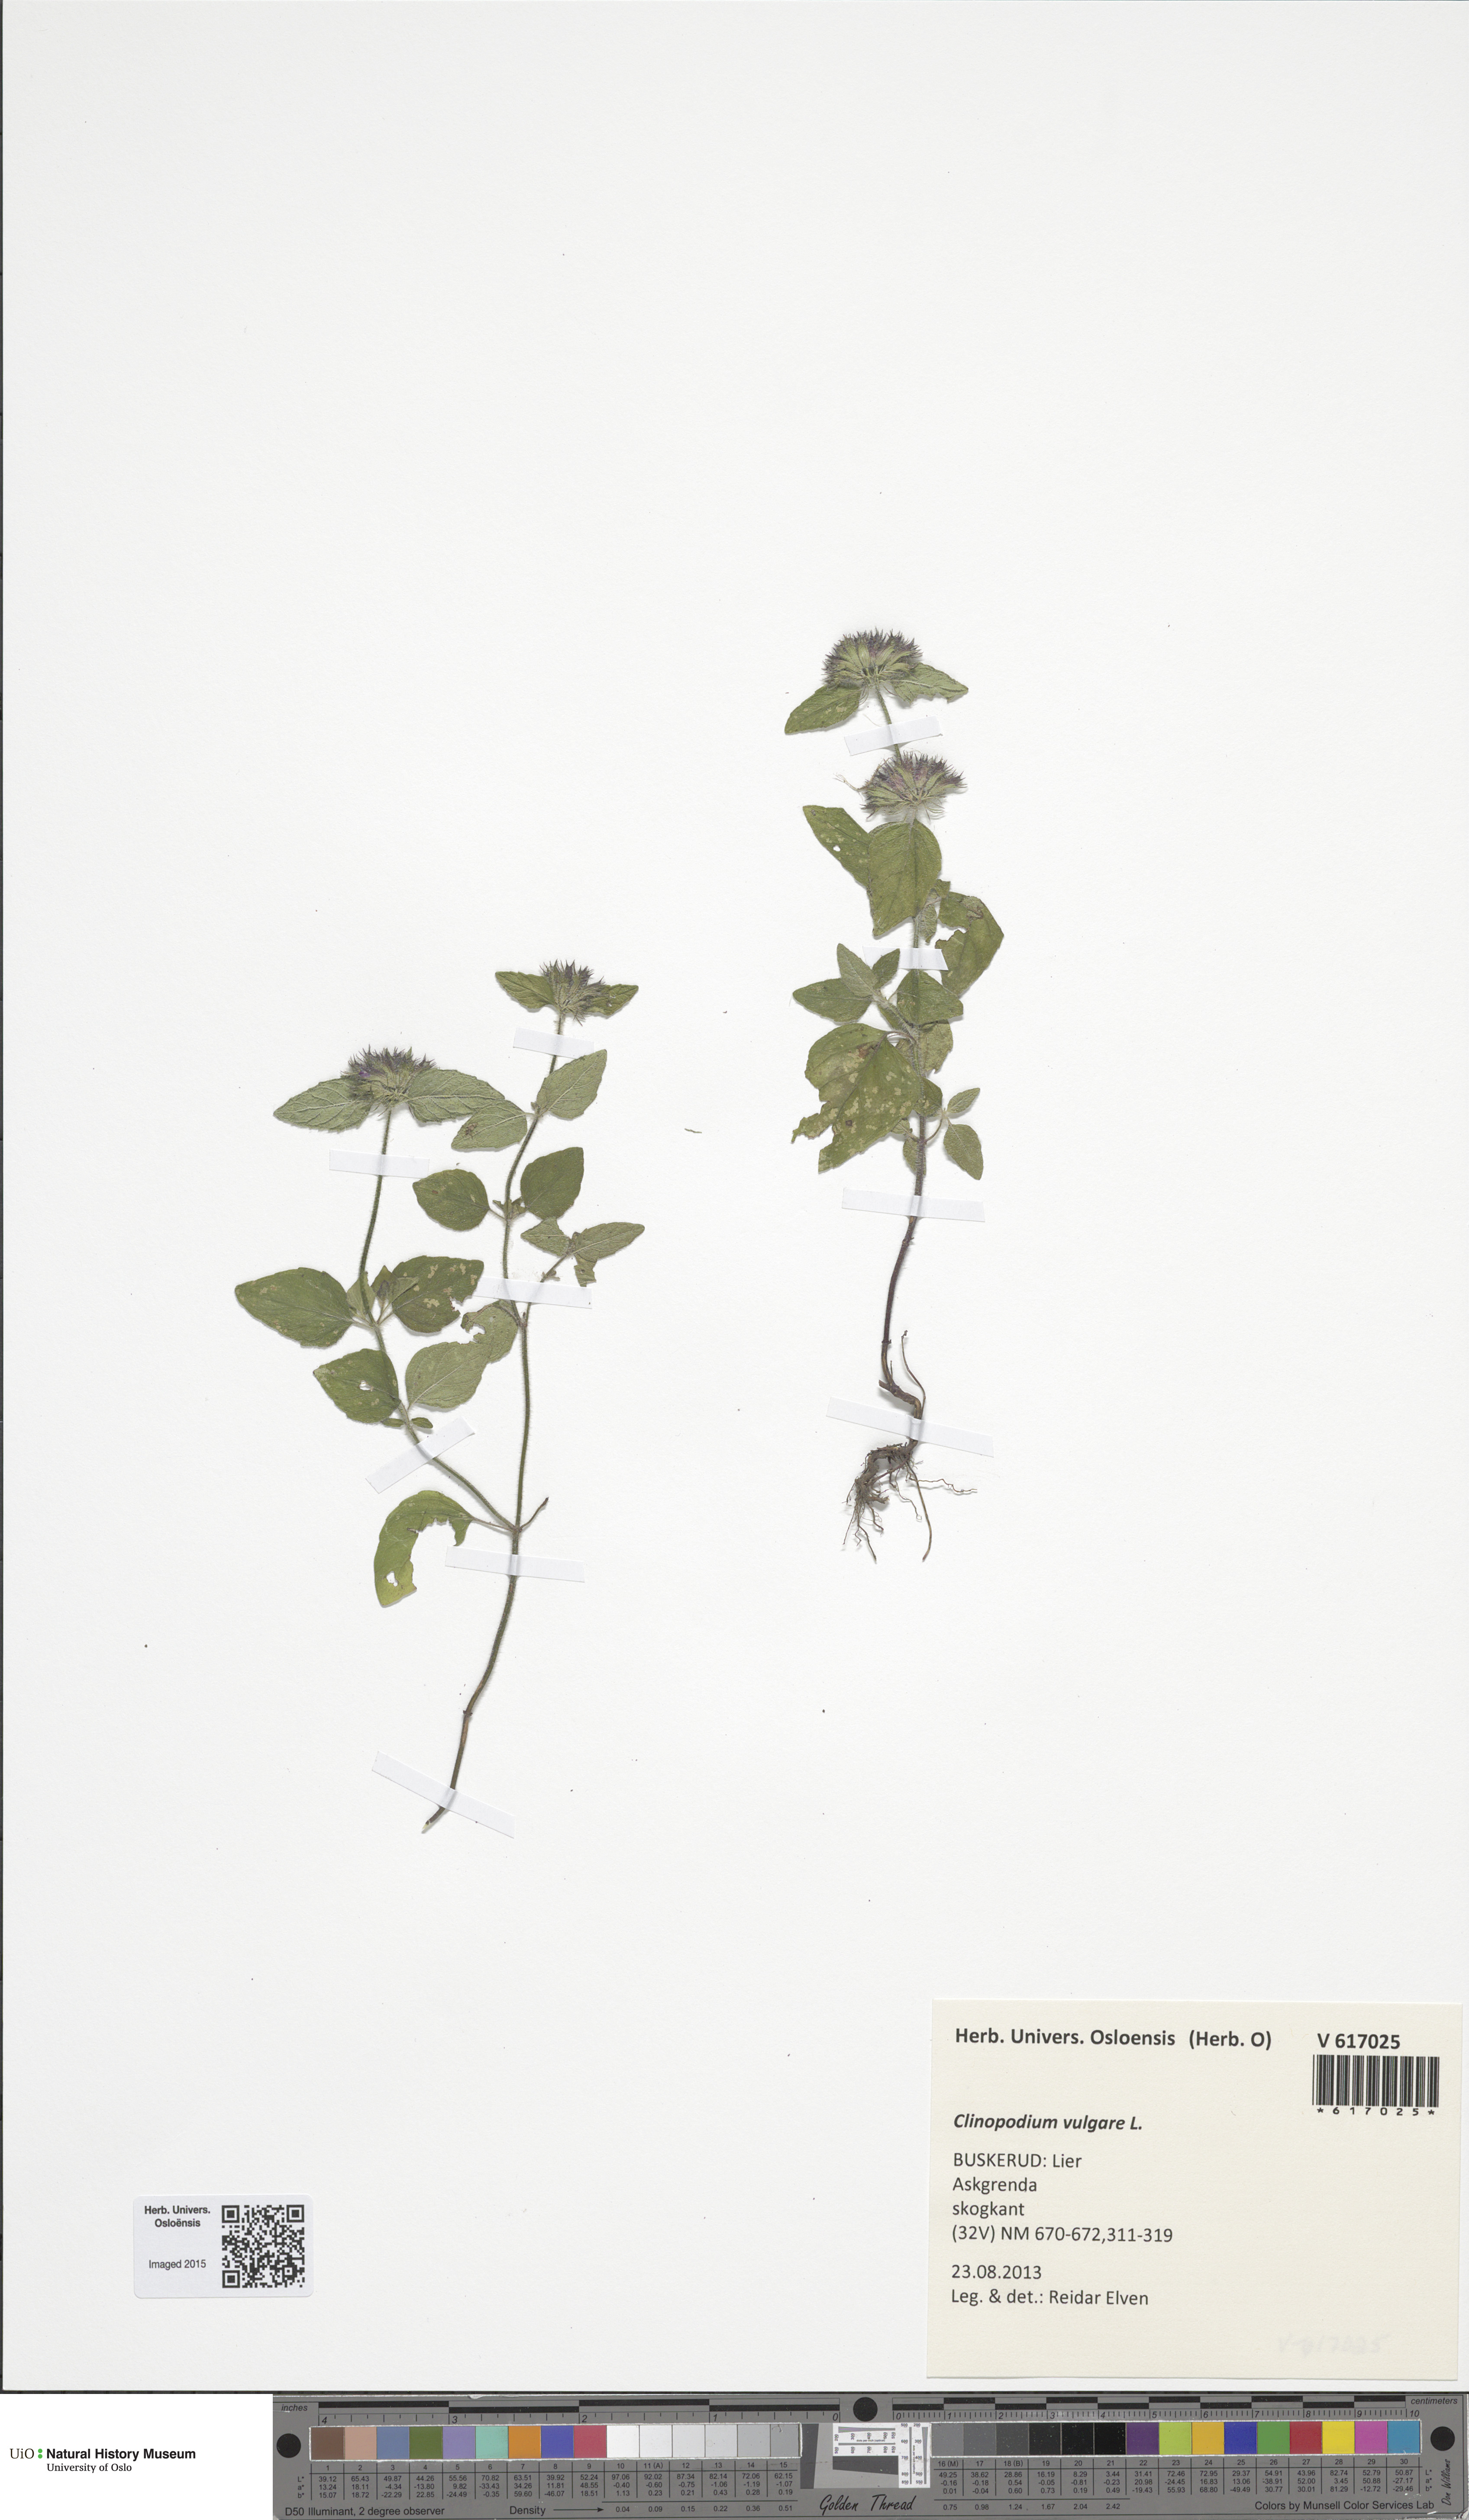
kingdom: Plantae
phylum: Tracheophyta
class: Magnoliopsida
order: Lamiales
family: Lamiaceae
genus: Clinopodium
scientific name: Clinopodium vulgare
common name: Wild basil
